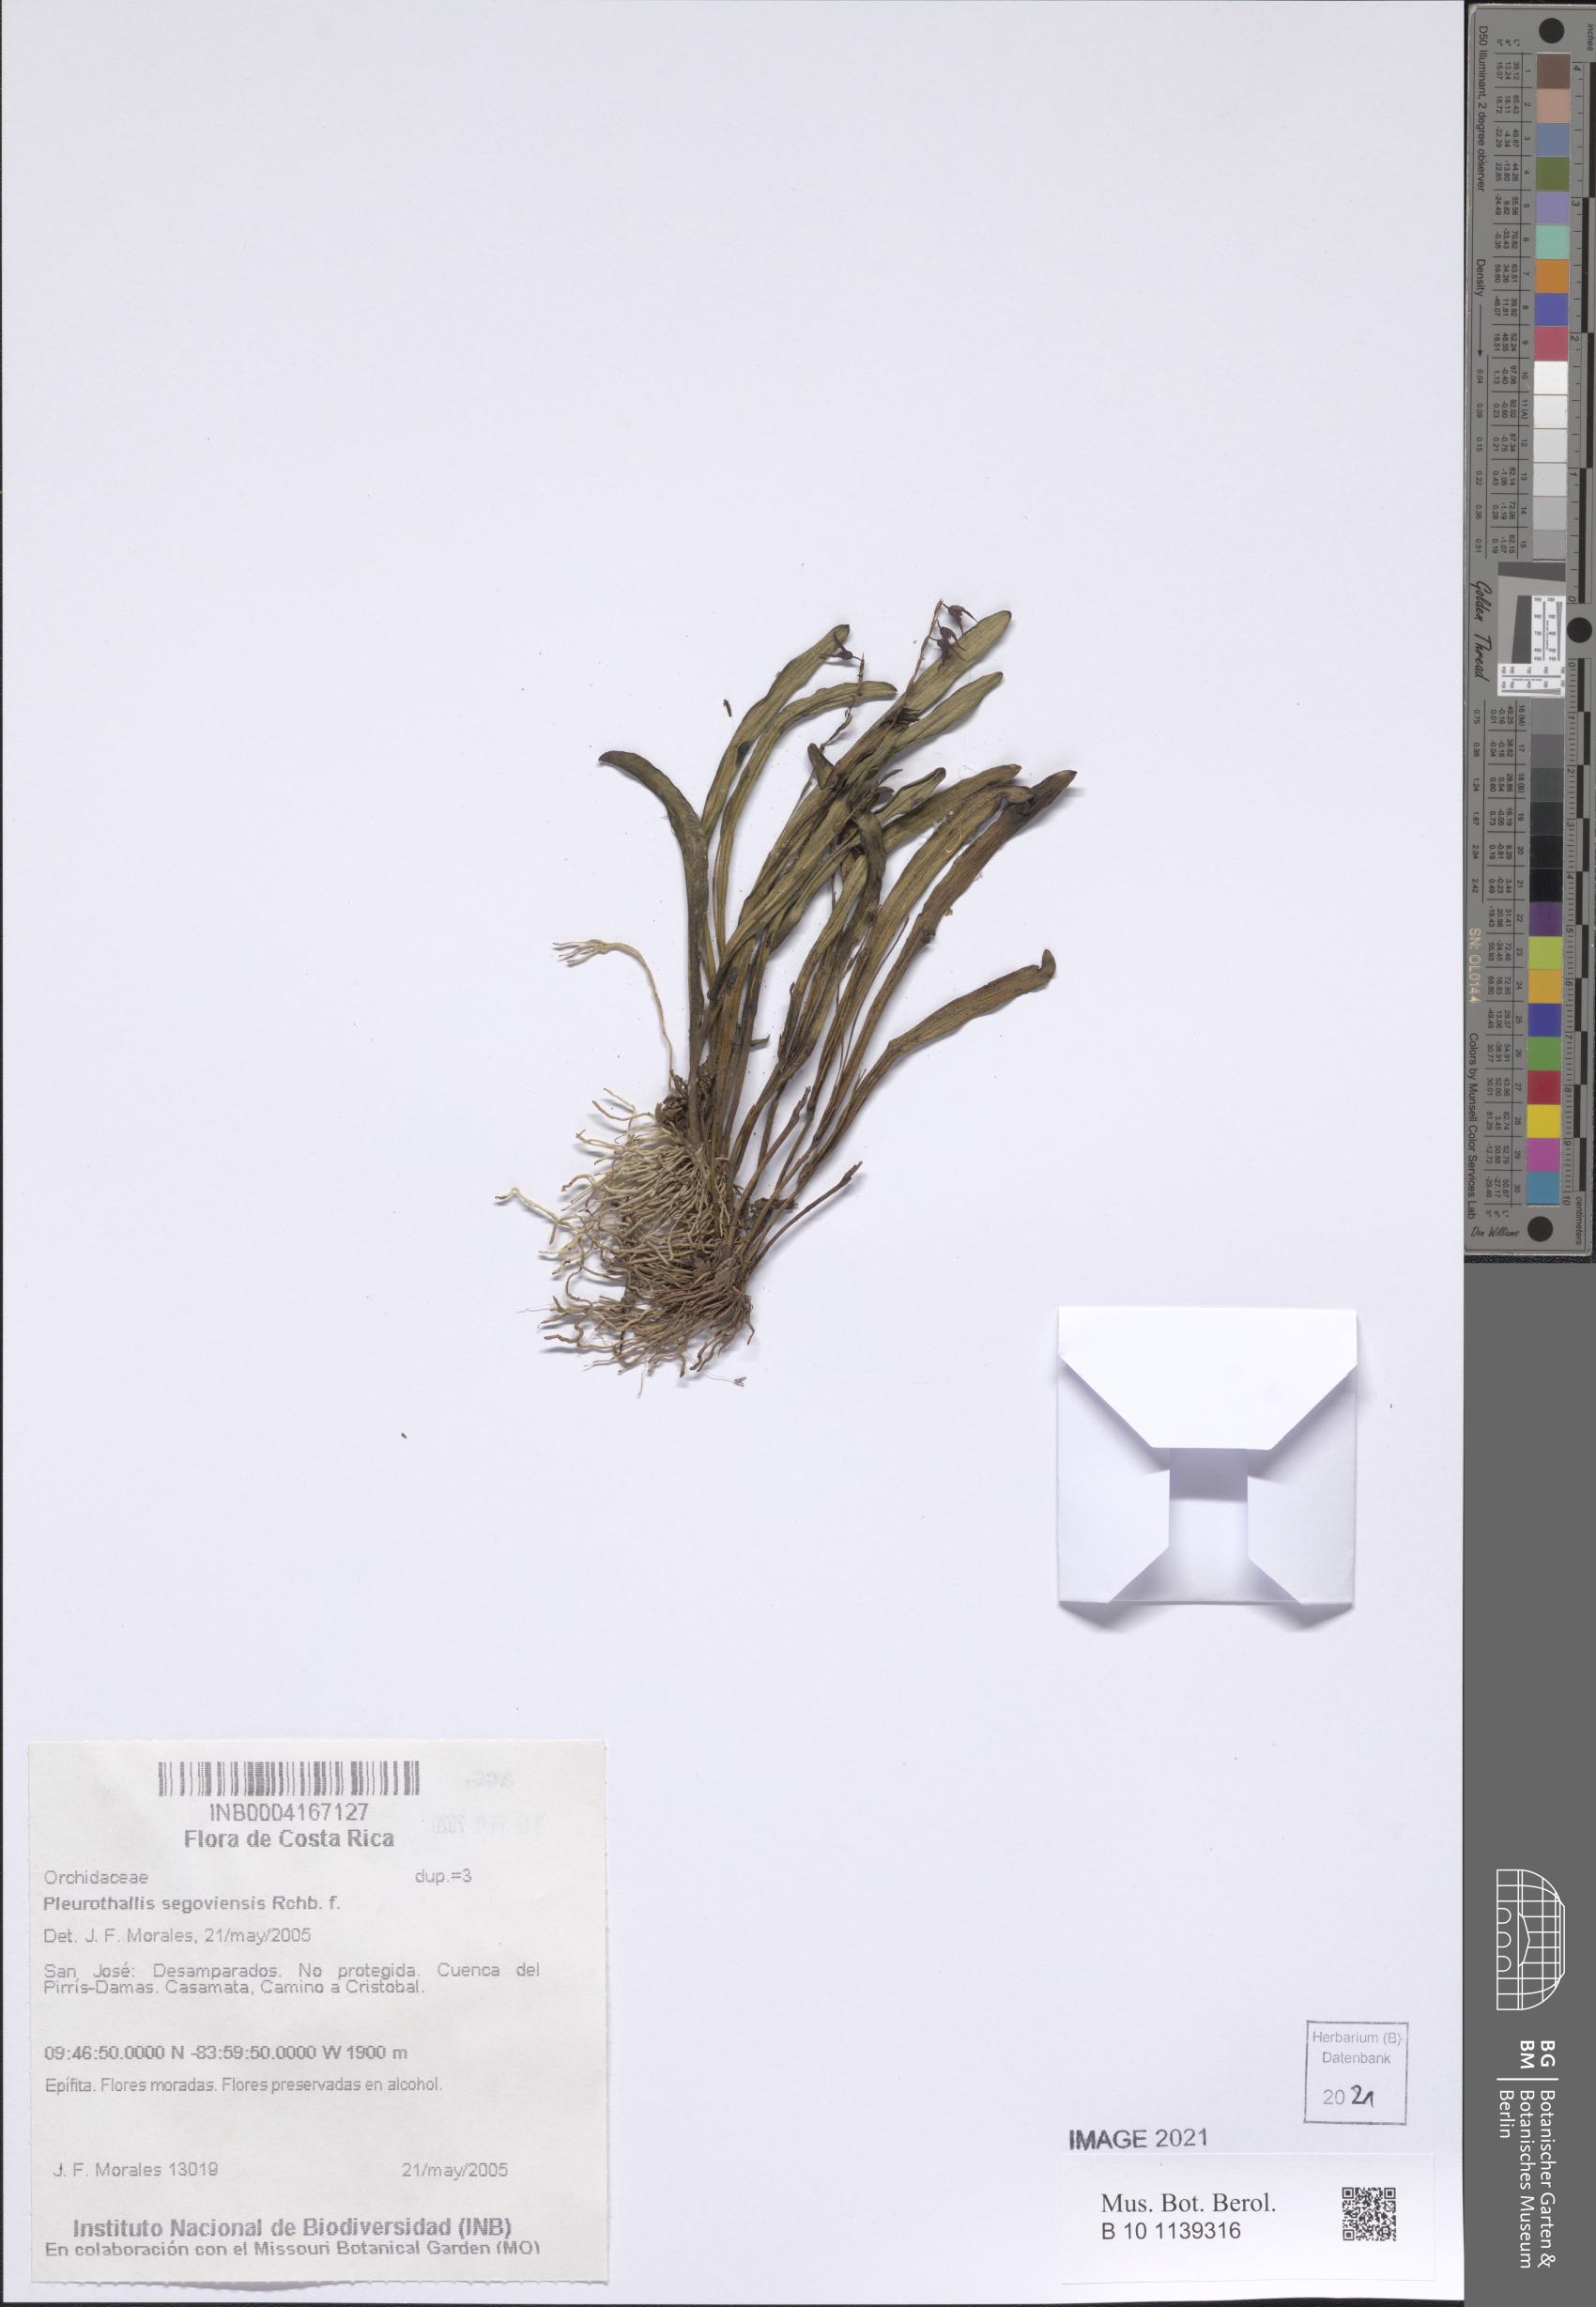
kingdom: Plantae
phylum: Tracheophyta
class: Liliopsida
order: Asparagales
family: Orchidaceae
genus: Stelis
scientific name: Stelis segoviensis
